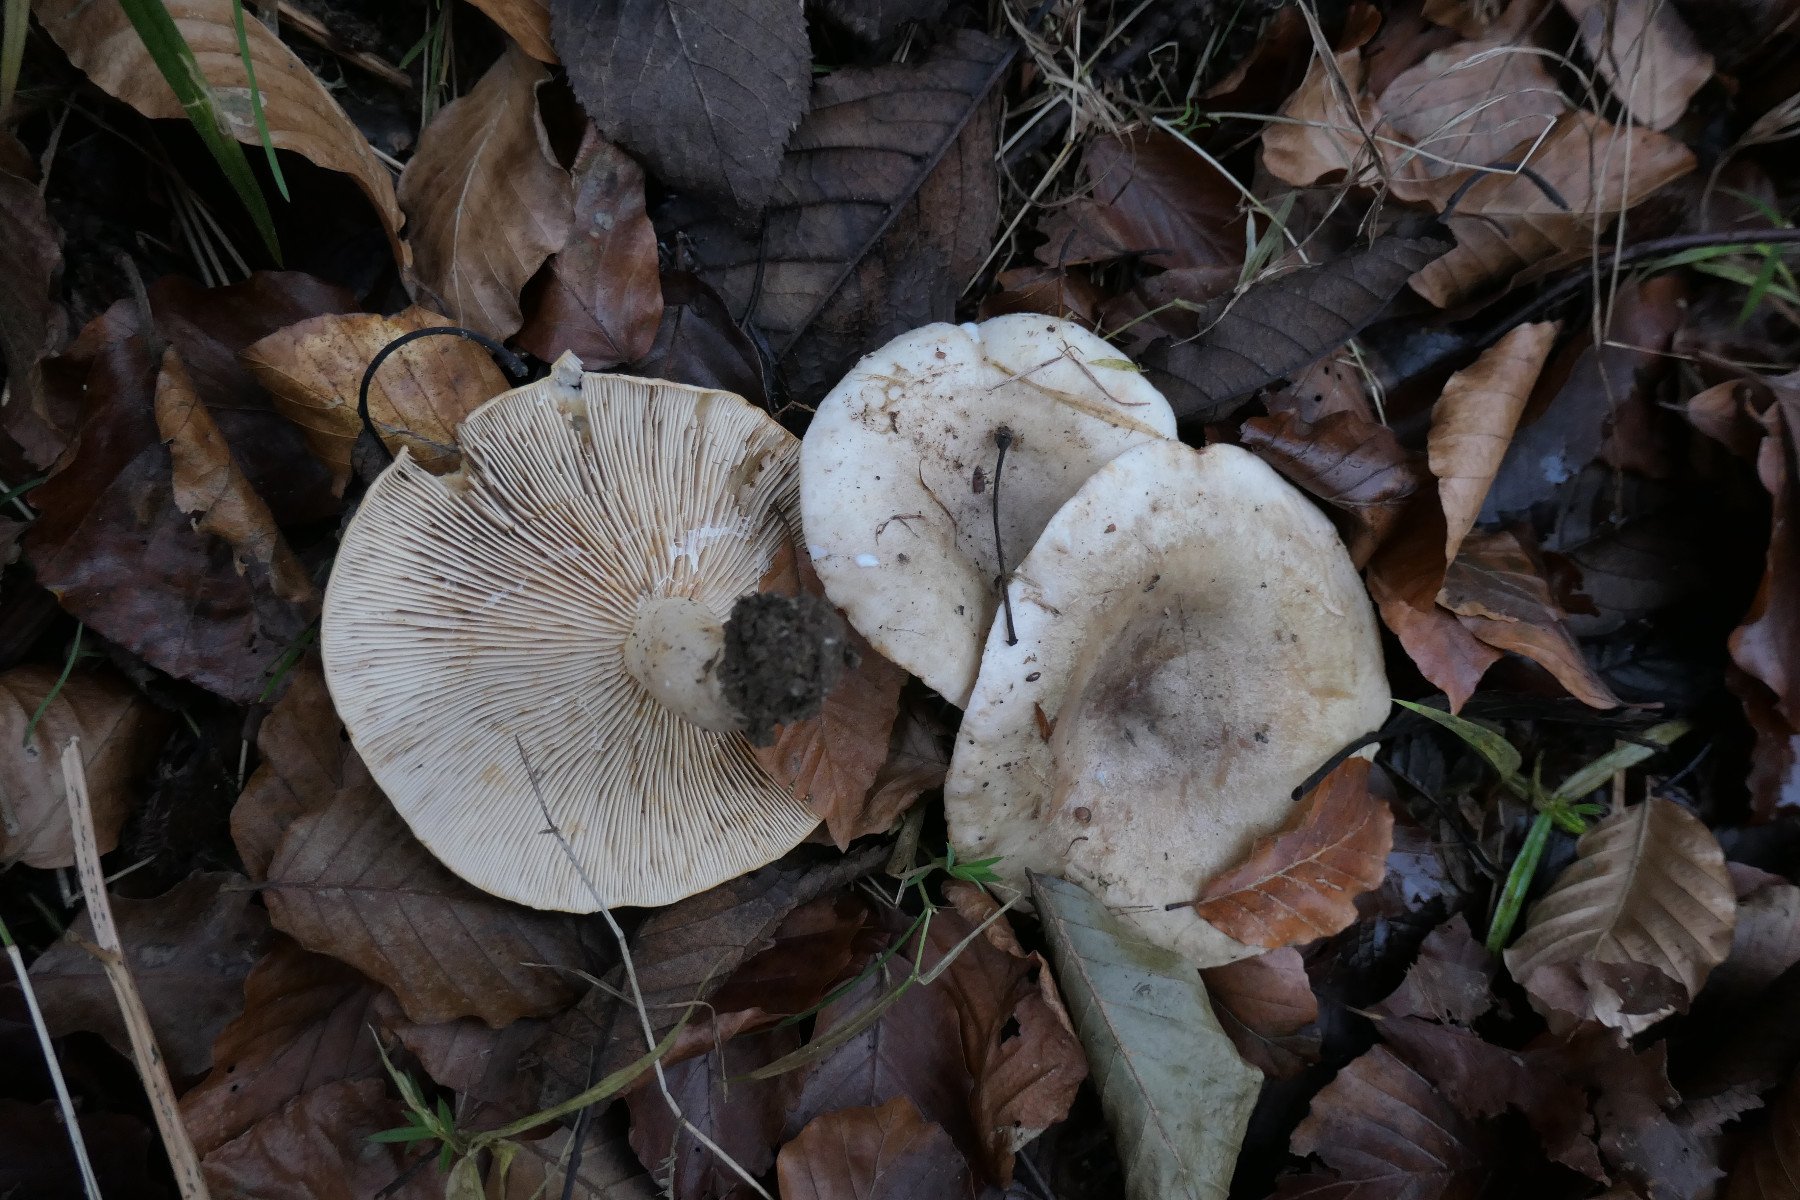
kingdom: Fungi
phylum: Basidiomycota
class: Agaricomycetes
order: Russulales
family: Russulaceae
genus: Lactarius
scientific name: Lactarius pallidus
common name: bleg mælkehat
